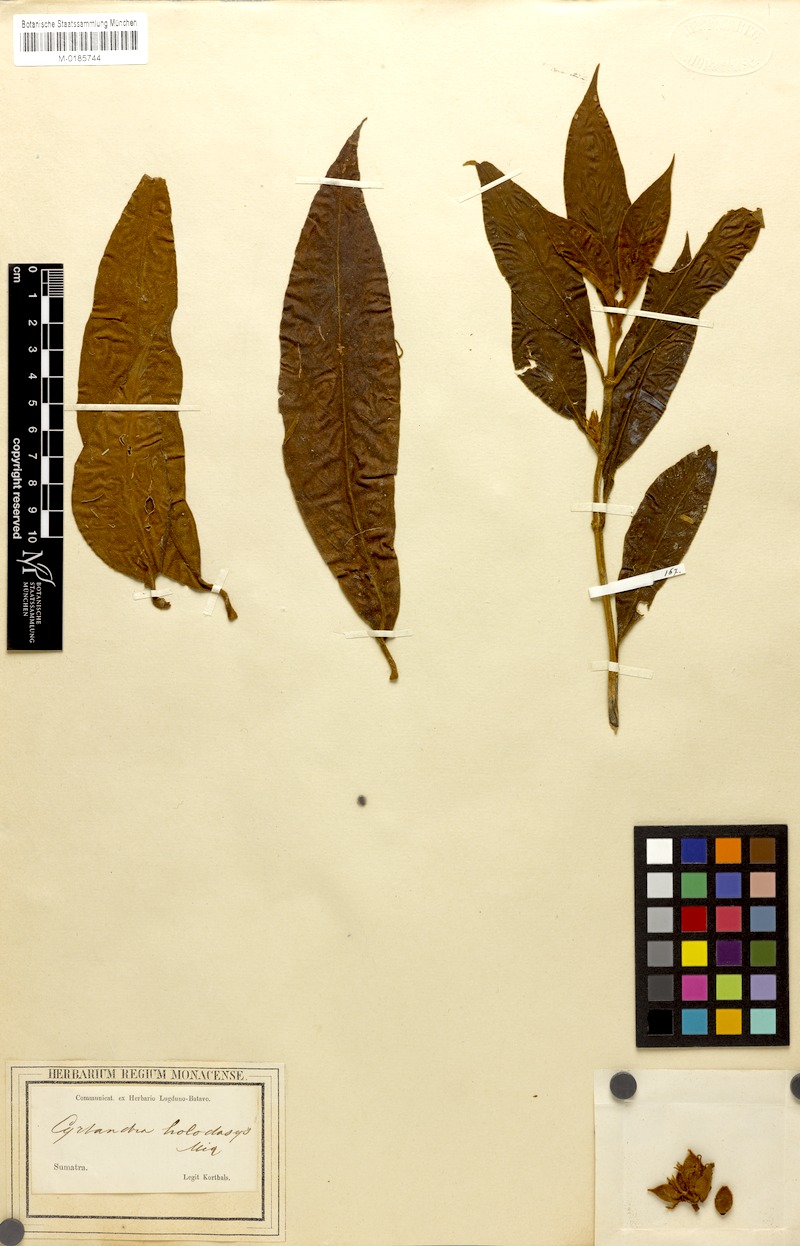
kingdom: Plantae
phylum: Tracheophyta
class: Magnoliopsida
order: Lamiales
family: Gesneriaceae
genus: Cyrtandra
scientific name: Cyrtandra holodasys
